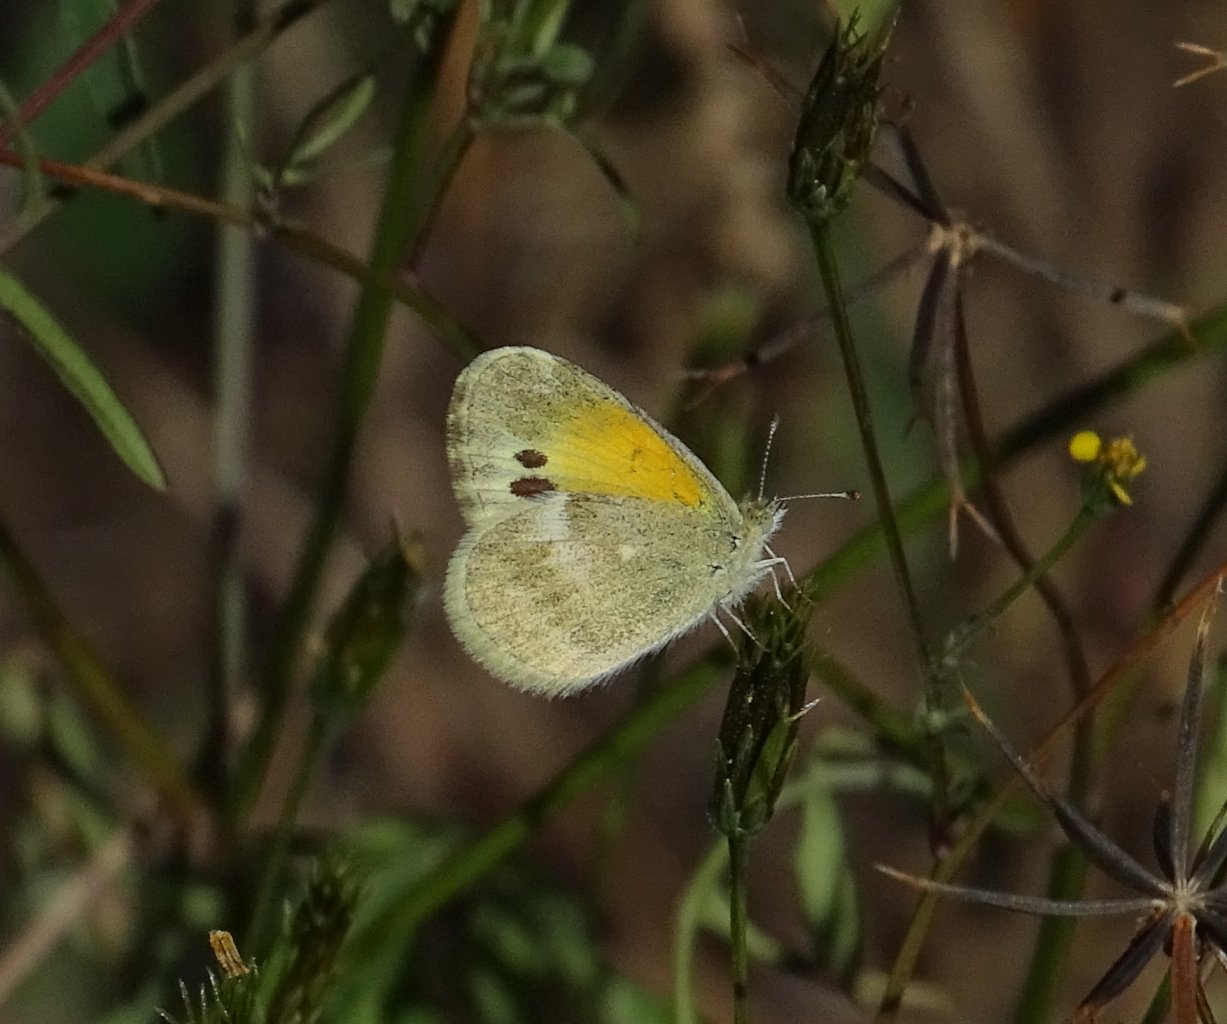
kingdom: Animalia
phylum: Arthropoda
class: Insecta
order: Lepidoptera
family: Pieridae
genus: Nathalis
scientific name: Nathalis iole
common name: Dainty Sulphur
